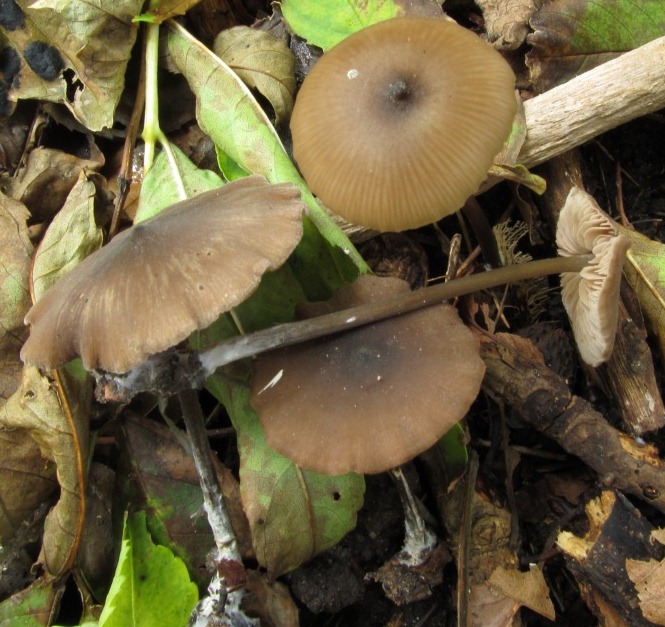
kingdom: Fungi
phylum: Basidiomycota
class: Agaricomycetes
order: Agaricales
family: Entolomataceae
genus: Entoloma
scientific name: Entoloma hebes
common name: krat-rødblad
